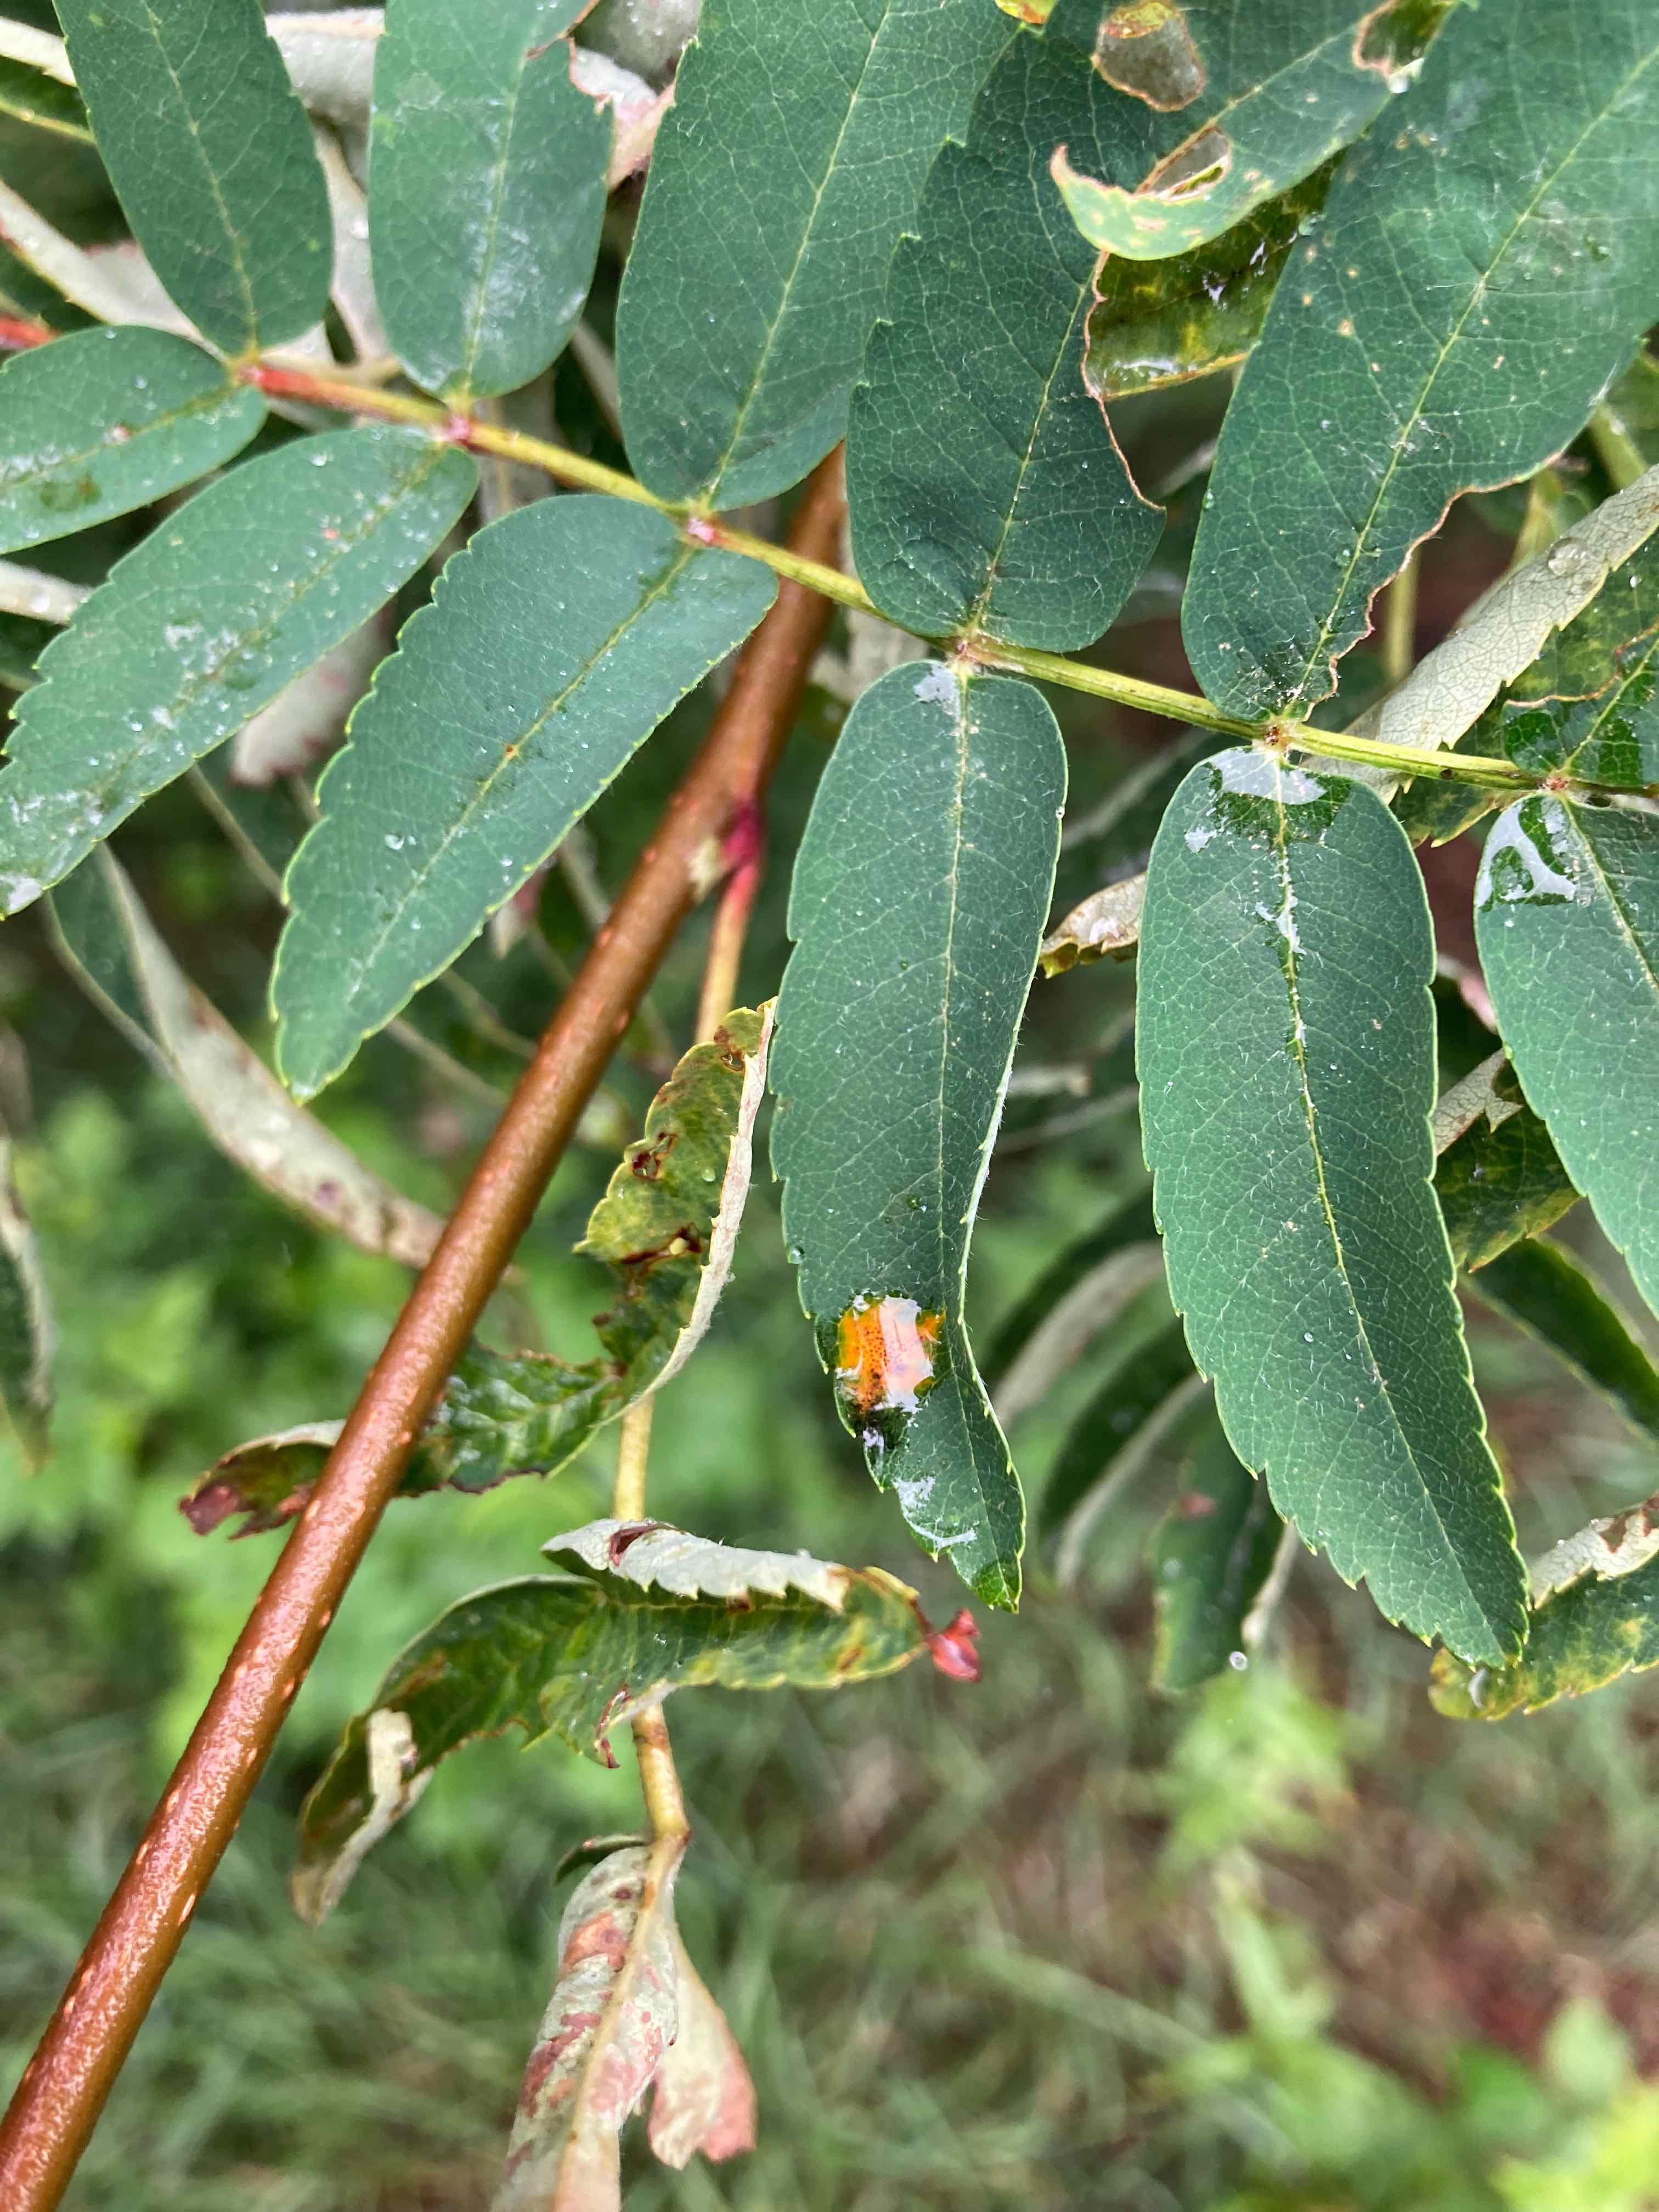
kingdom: Fungi
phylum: Basidiomycota
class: Pucciniomycetes
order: Pucciniales
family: Gymnosporangiaceae
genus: Gymnosporangium
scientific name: Gymnosporangium cornutum
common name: rønnehorn-bævrerust
